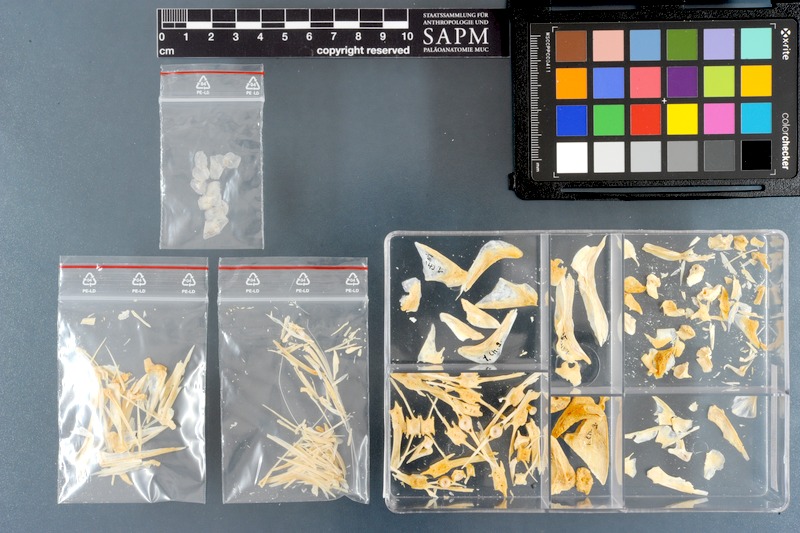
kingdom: Animalia
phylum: Chordata
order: Perciformes
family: Ephippidae
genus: Ephippus
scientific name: Ephippus goreensis
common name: African spadefish
